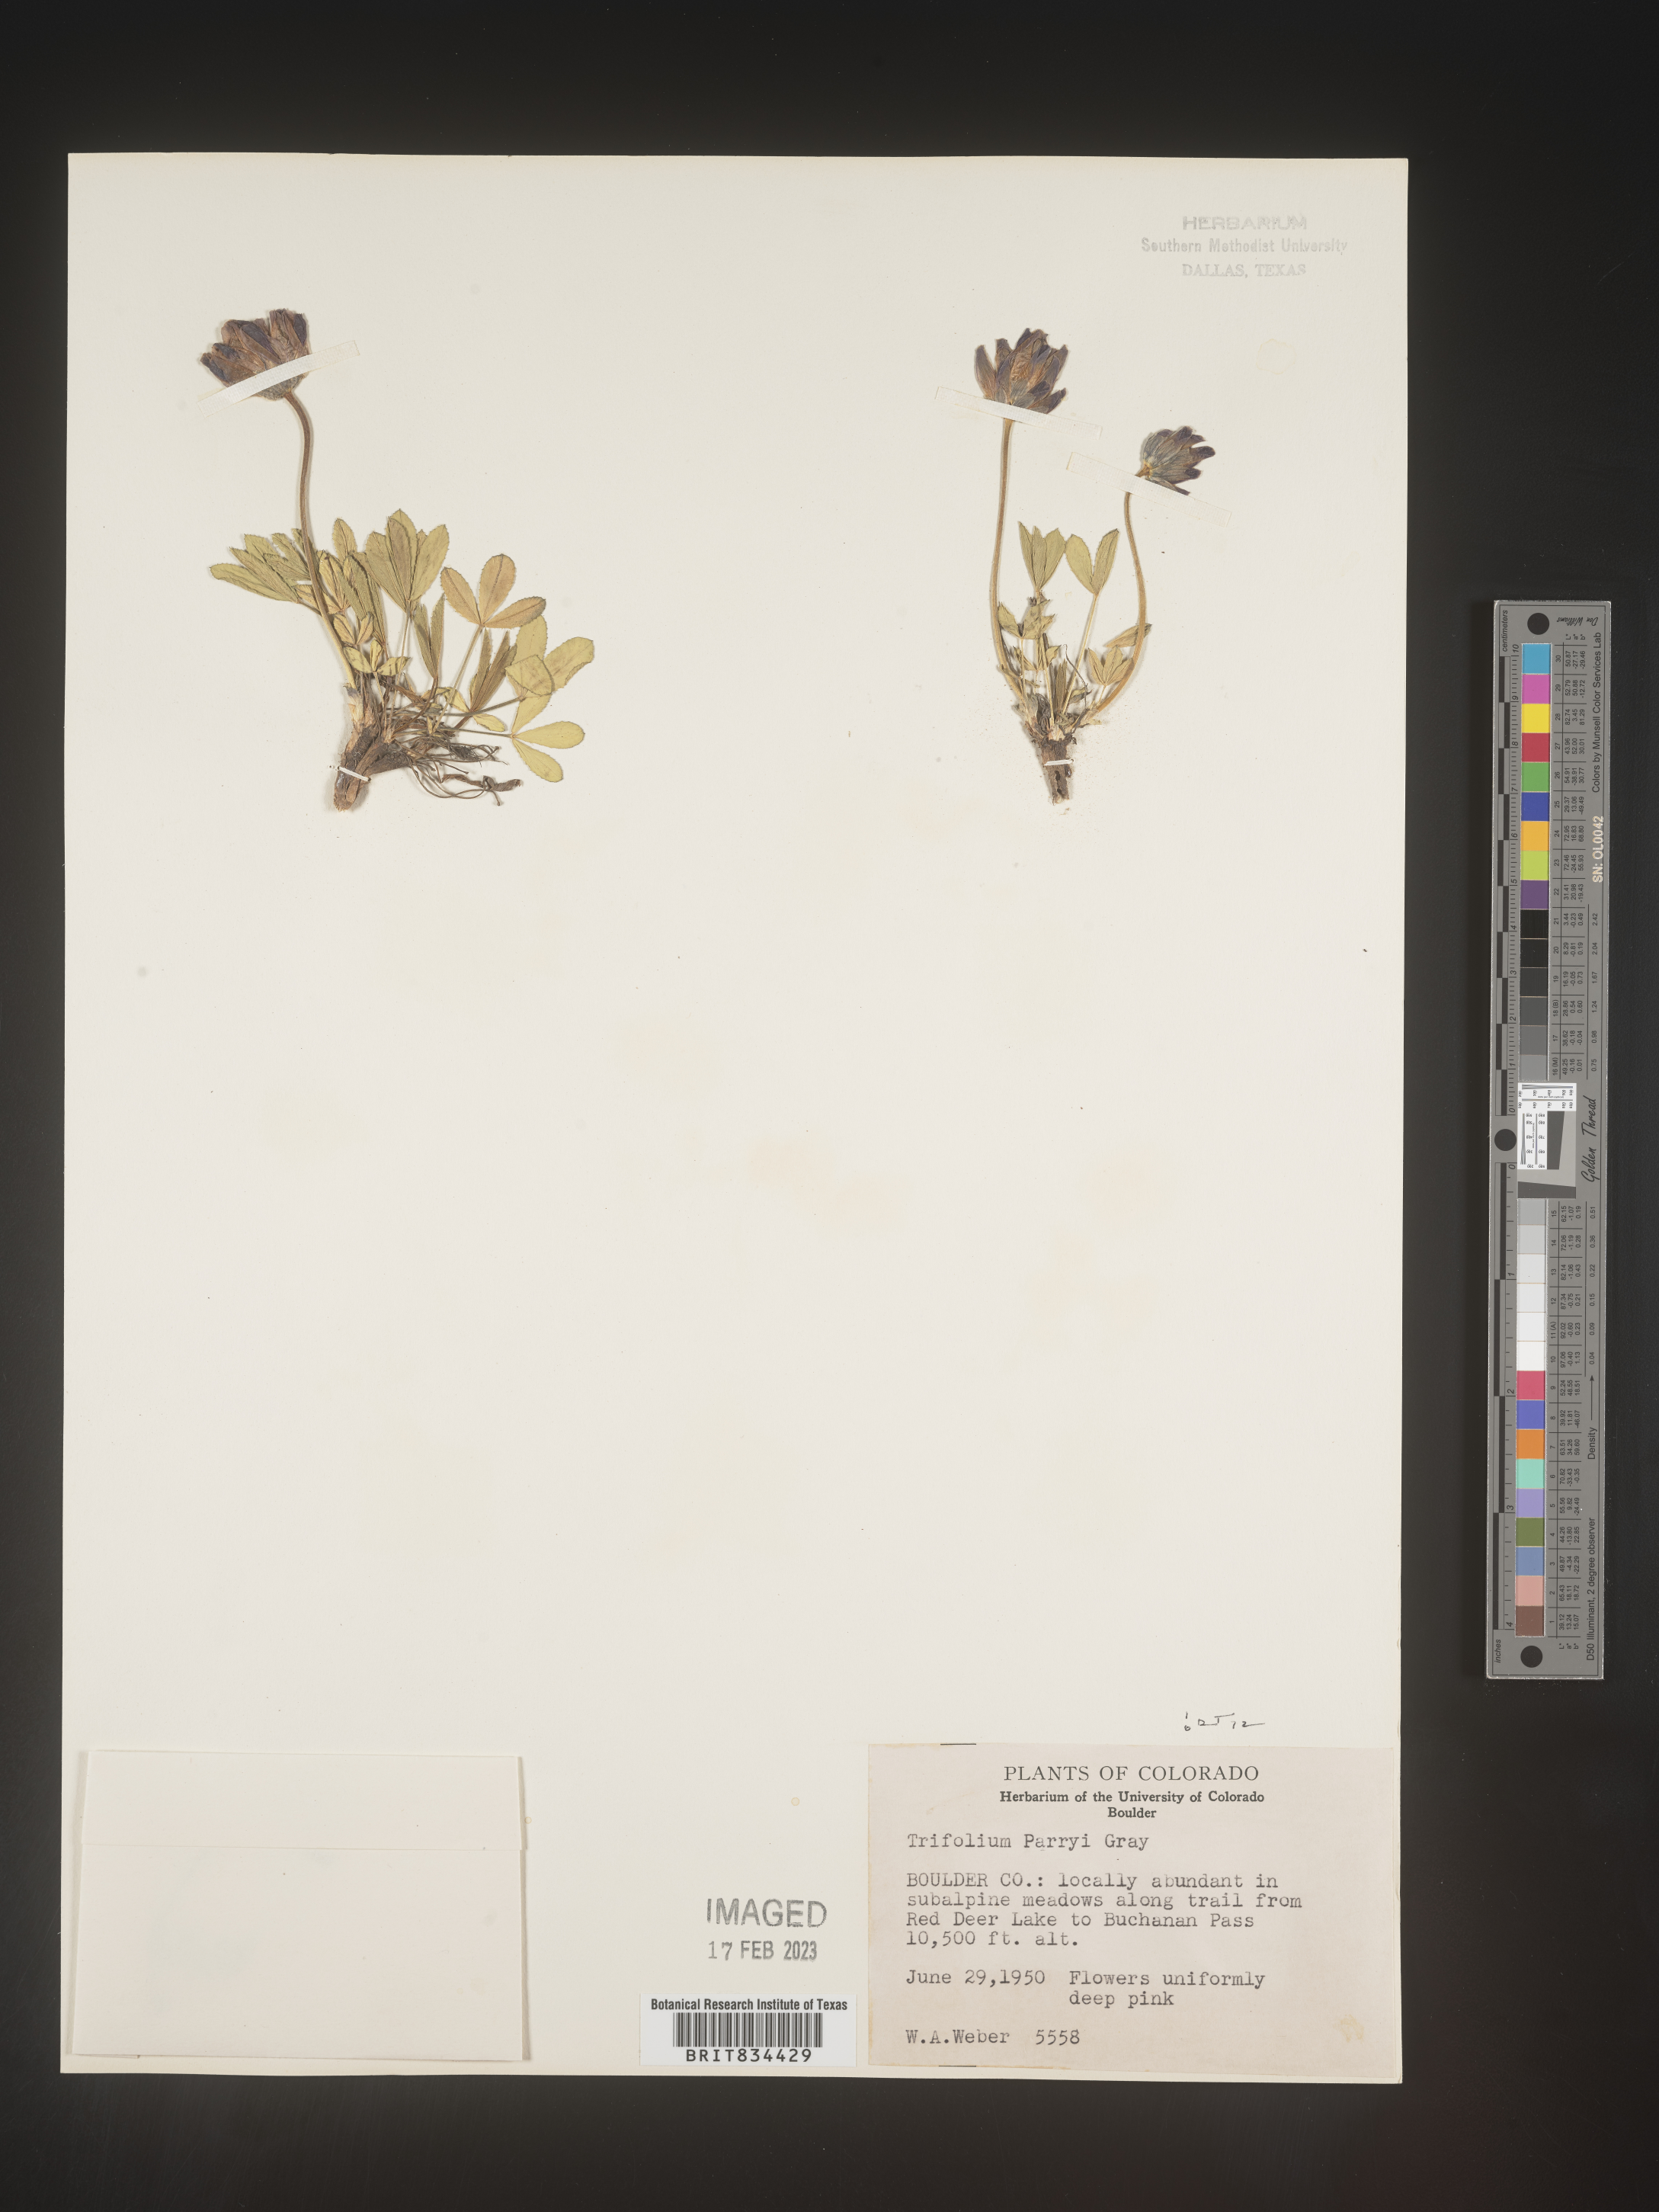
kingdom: Plantae
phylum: Tracheophyta
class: Magnoliopsida
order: Fabales
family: Fabaceae
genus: Trifolium
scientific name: Trifolium
